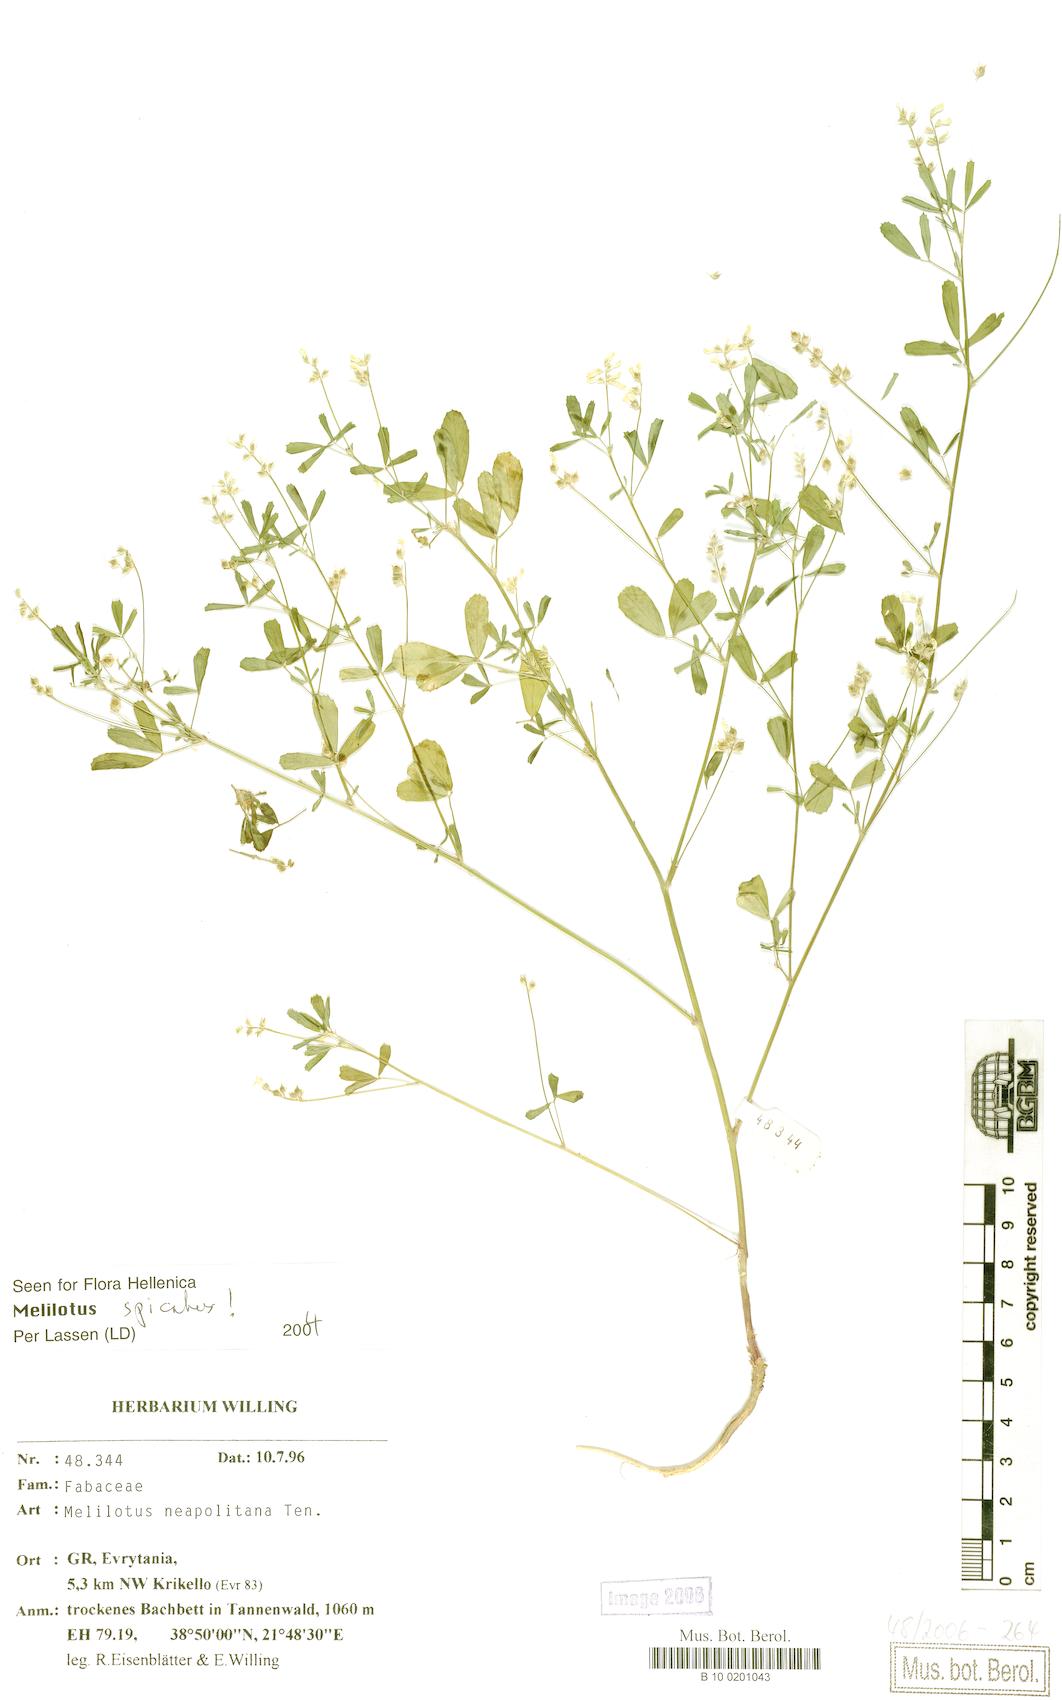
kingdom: Plantae
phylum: Tracheophyta
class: Magnoliopsida
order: Fabales
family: Fabaceae
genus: Melilotus
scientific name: Melilotus neapolitanus
